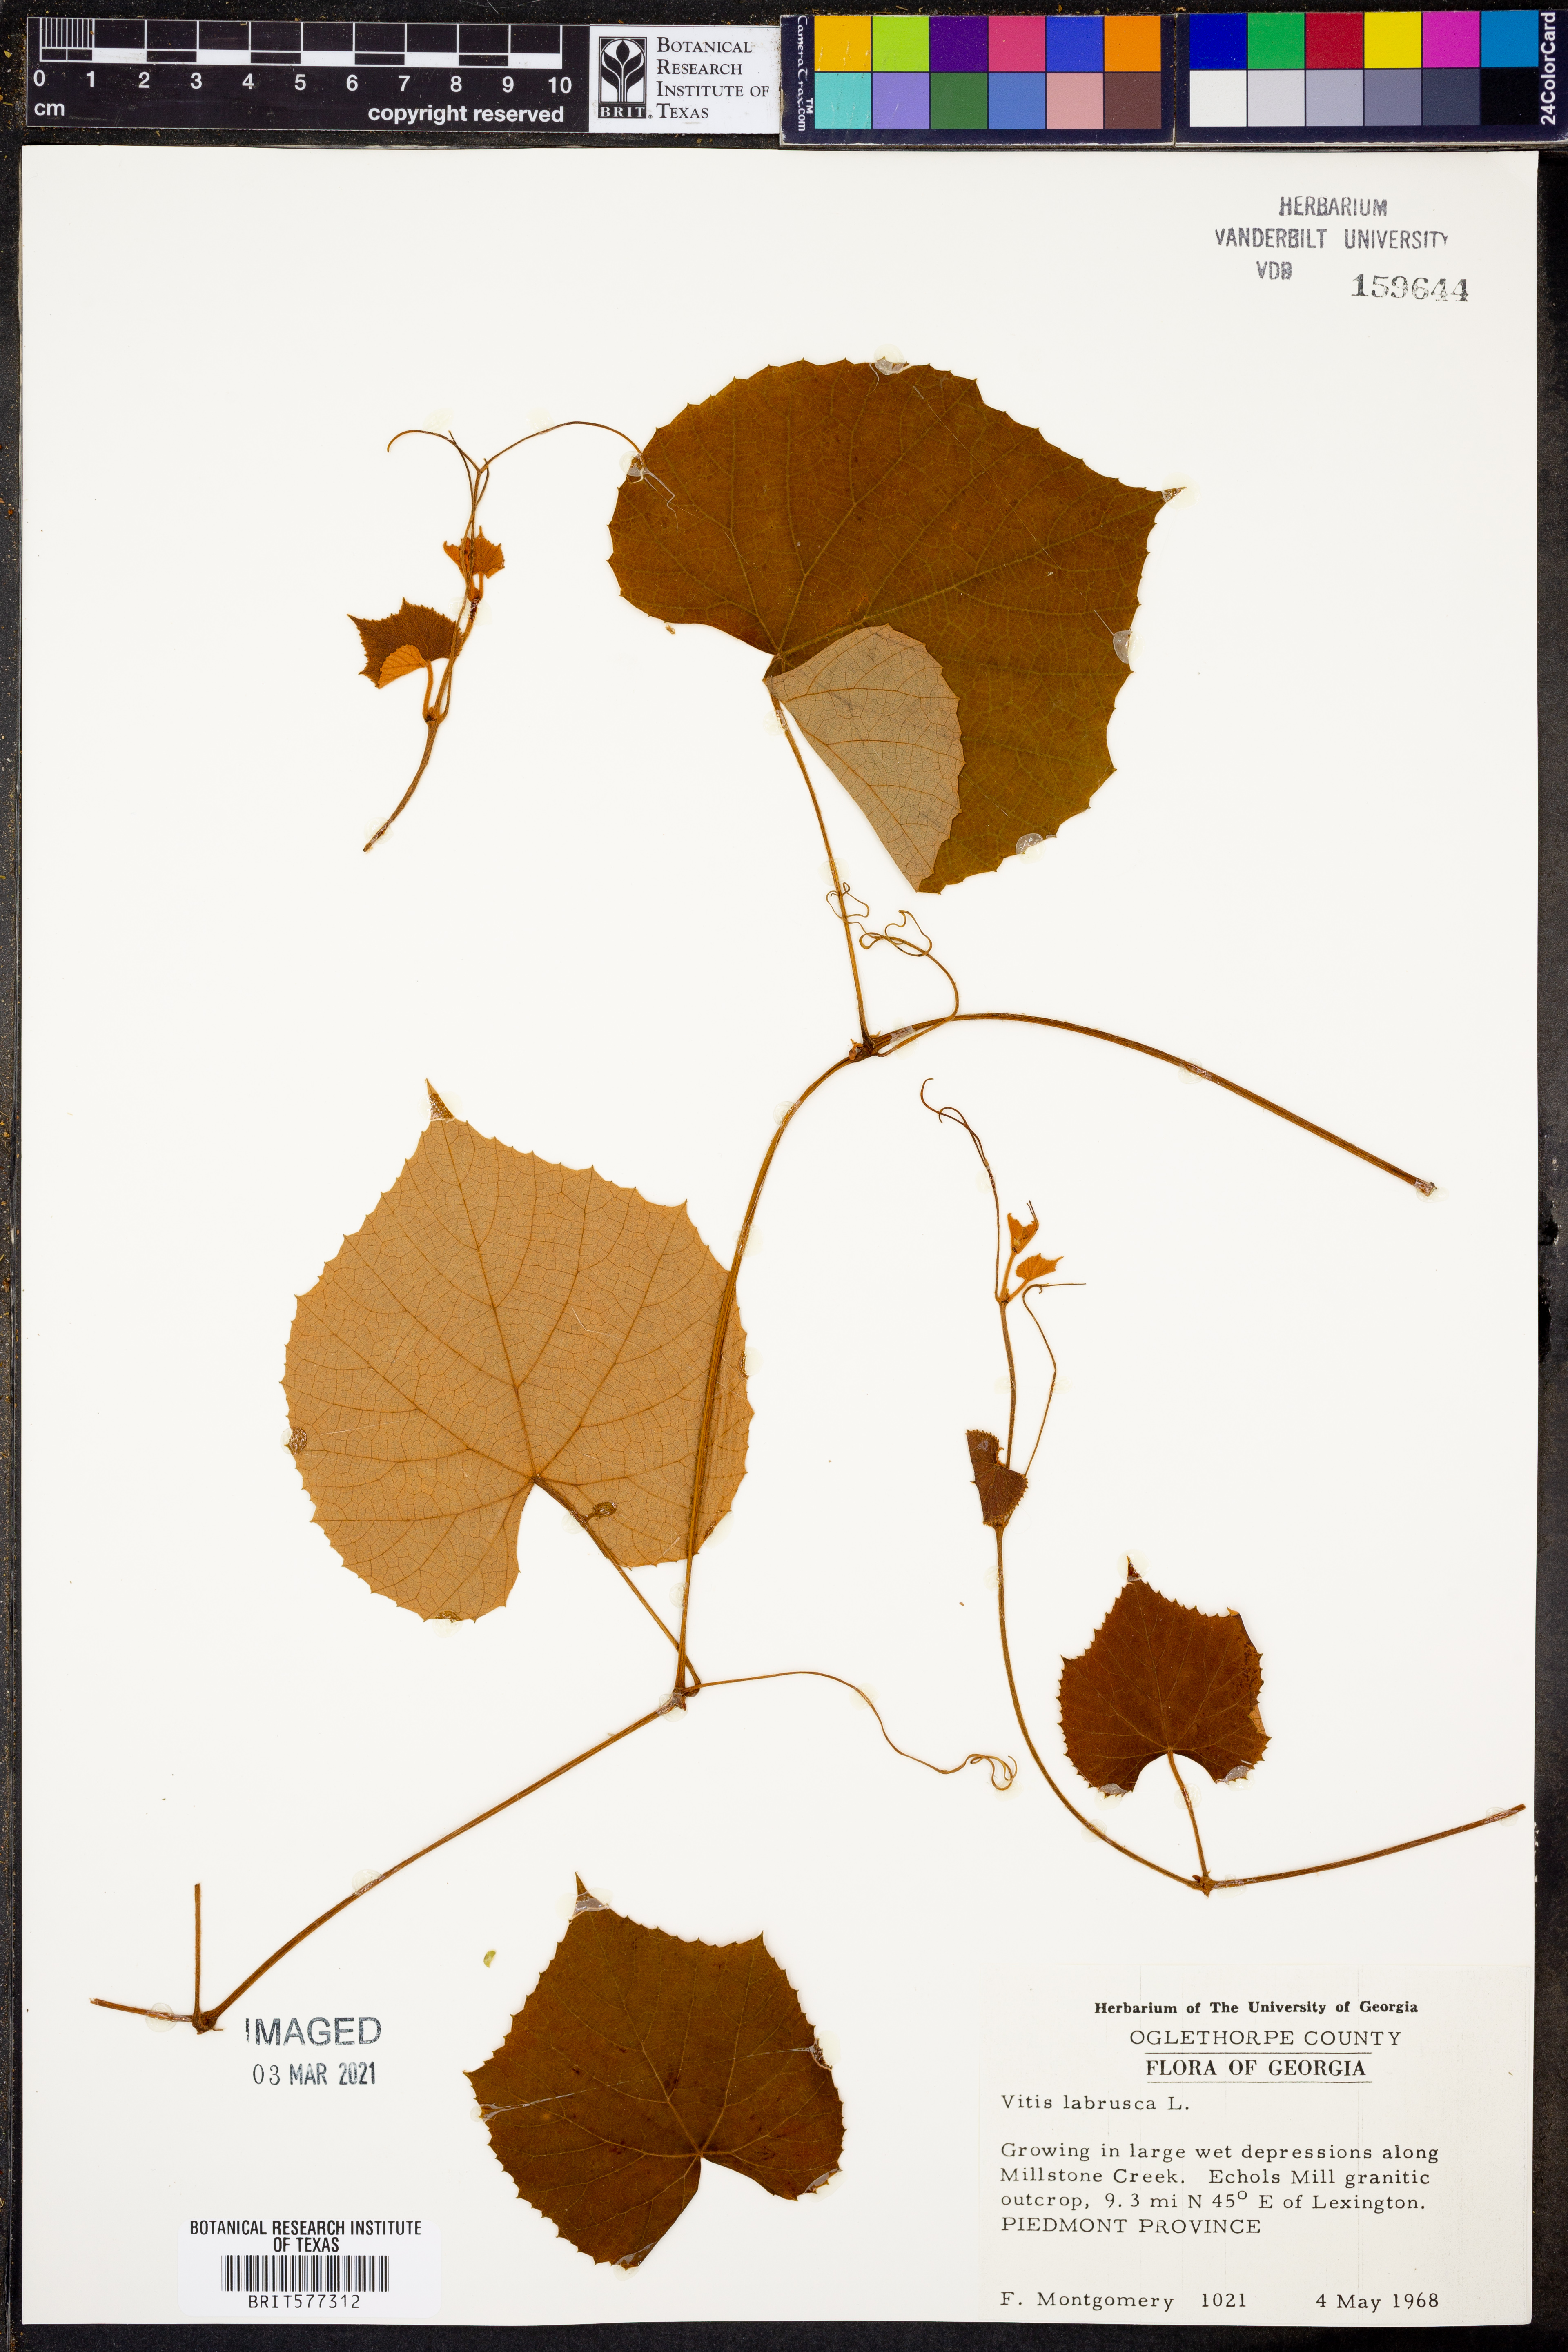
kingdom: Plantae
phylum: Tracheophyta
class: Magnoliopsida
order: Vitales
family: Vitaceae
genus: Vitis
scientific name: Vitis labrusca
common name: Concord grape
